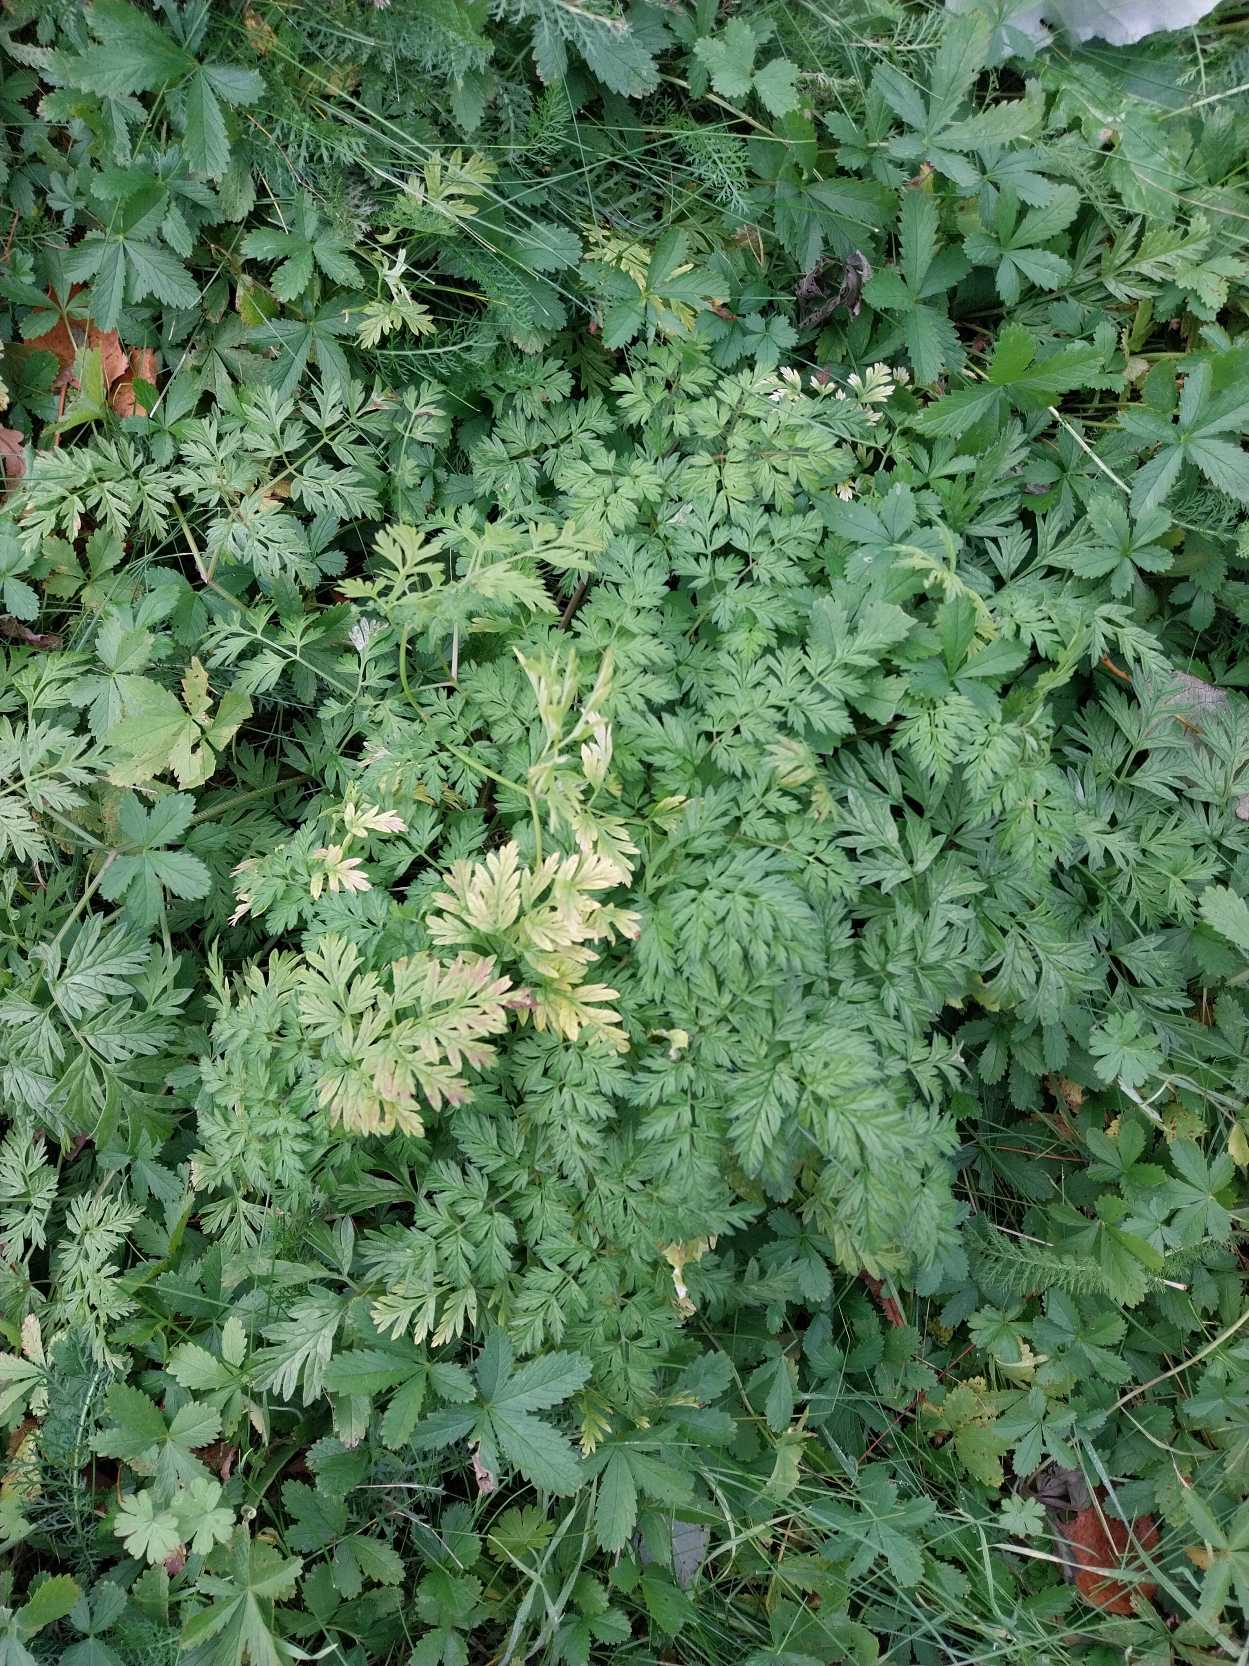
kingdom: Plantae
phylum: Tracheophyta
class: Magnoliopsida
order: Apiales
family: Apiaceae
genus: Anthriscus
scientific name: Anthriscus sylvestris
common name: Vild kørvel
